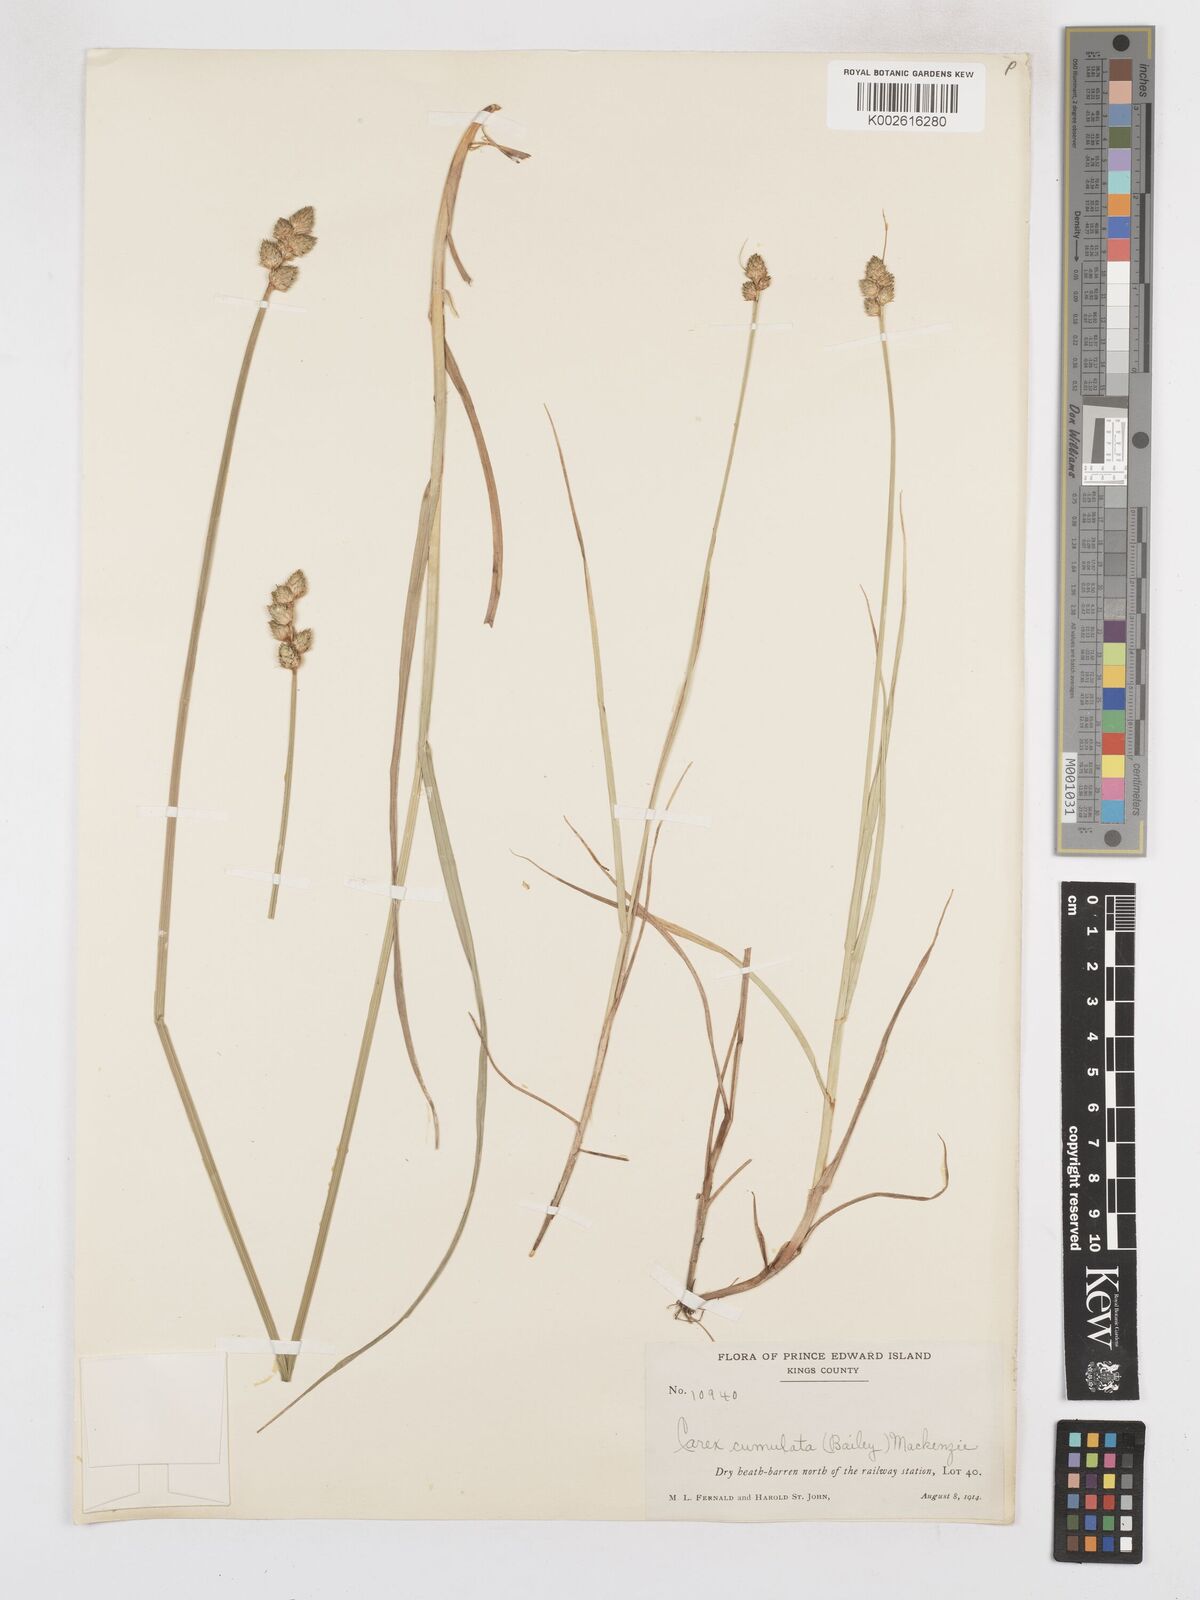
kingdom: Plantae
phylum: Tracheophyta
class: Liliopsida
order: Poales
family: Cyperaceae
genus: Carex
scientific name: Carex cumulata
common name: Accumulating sedge
